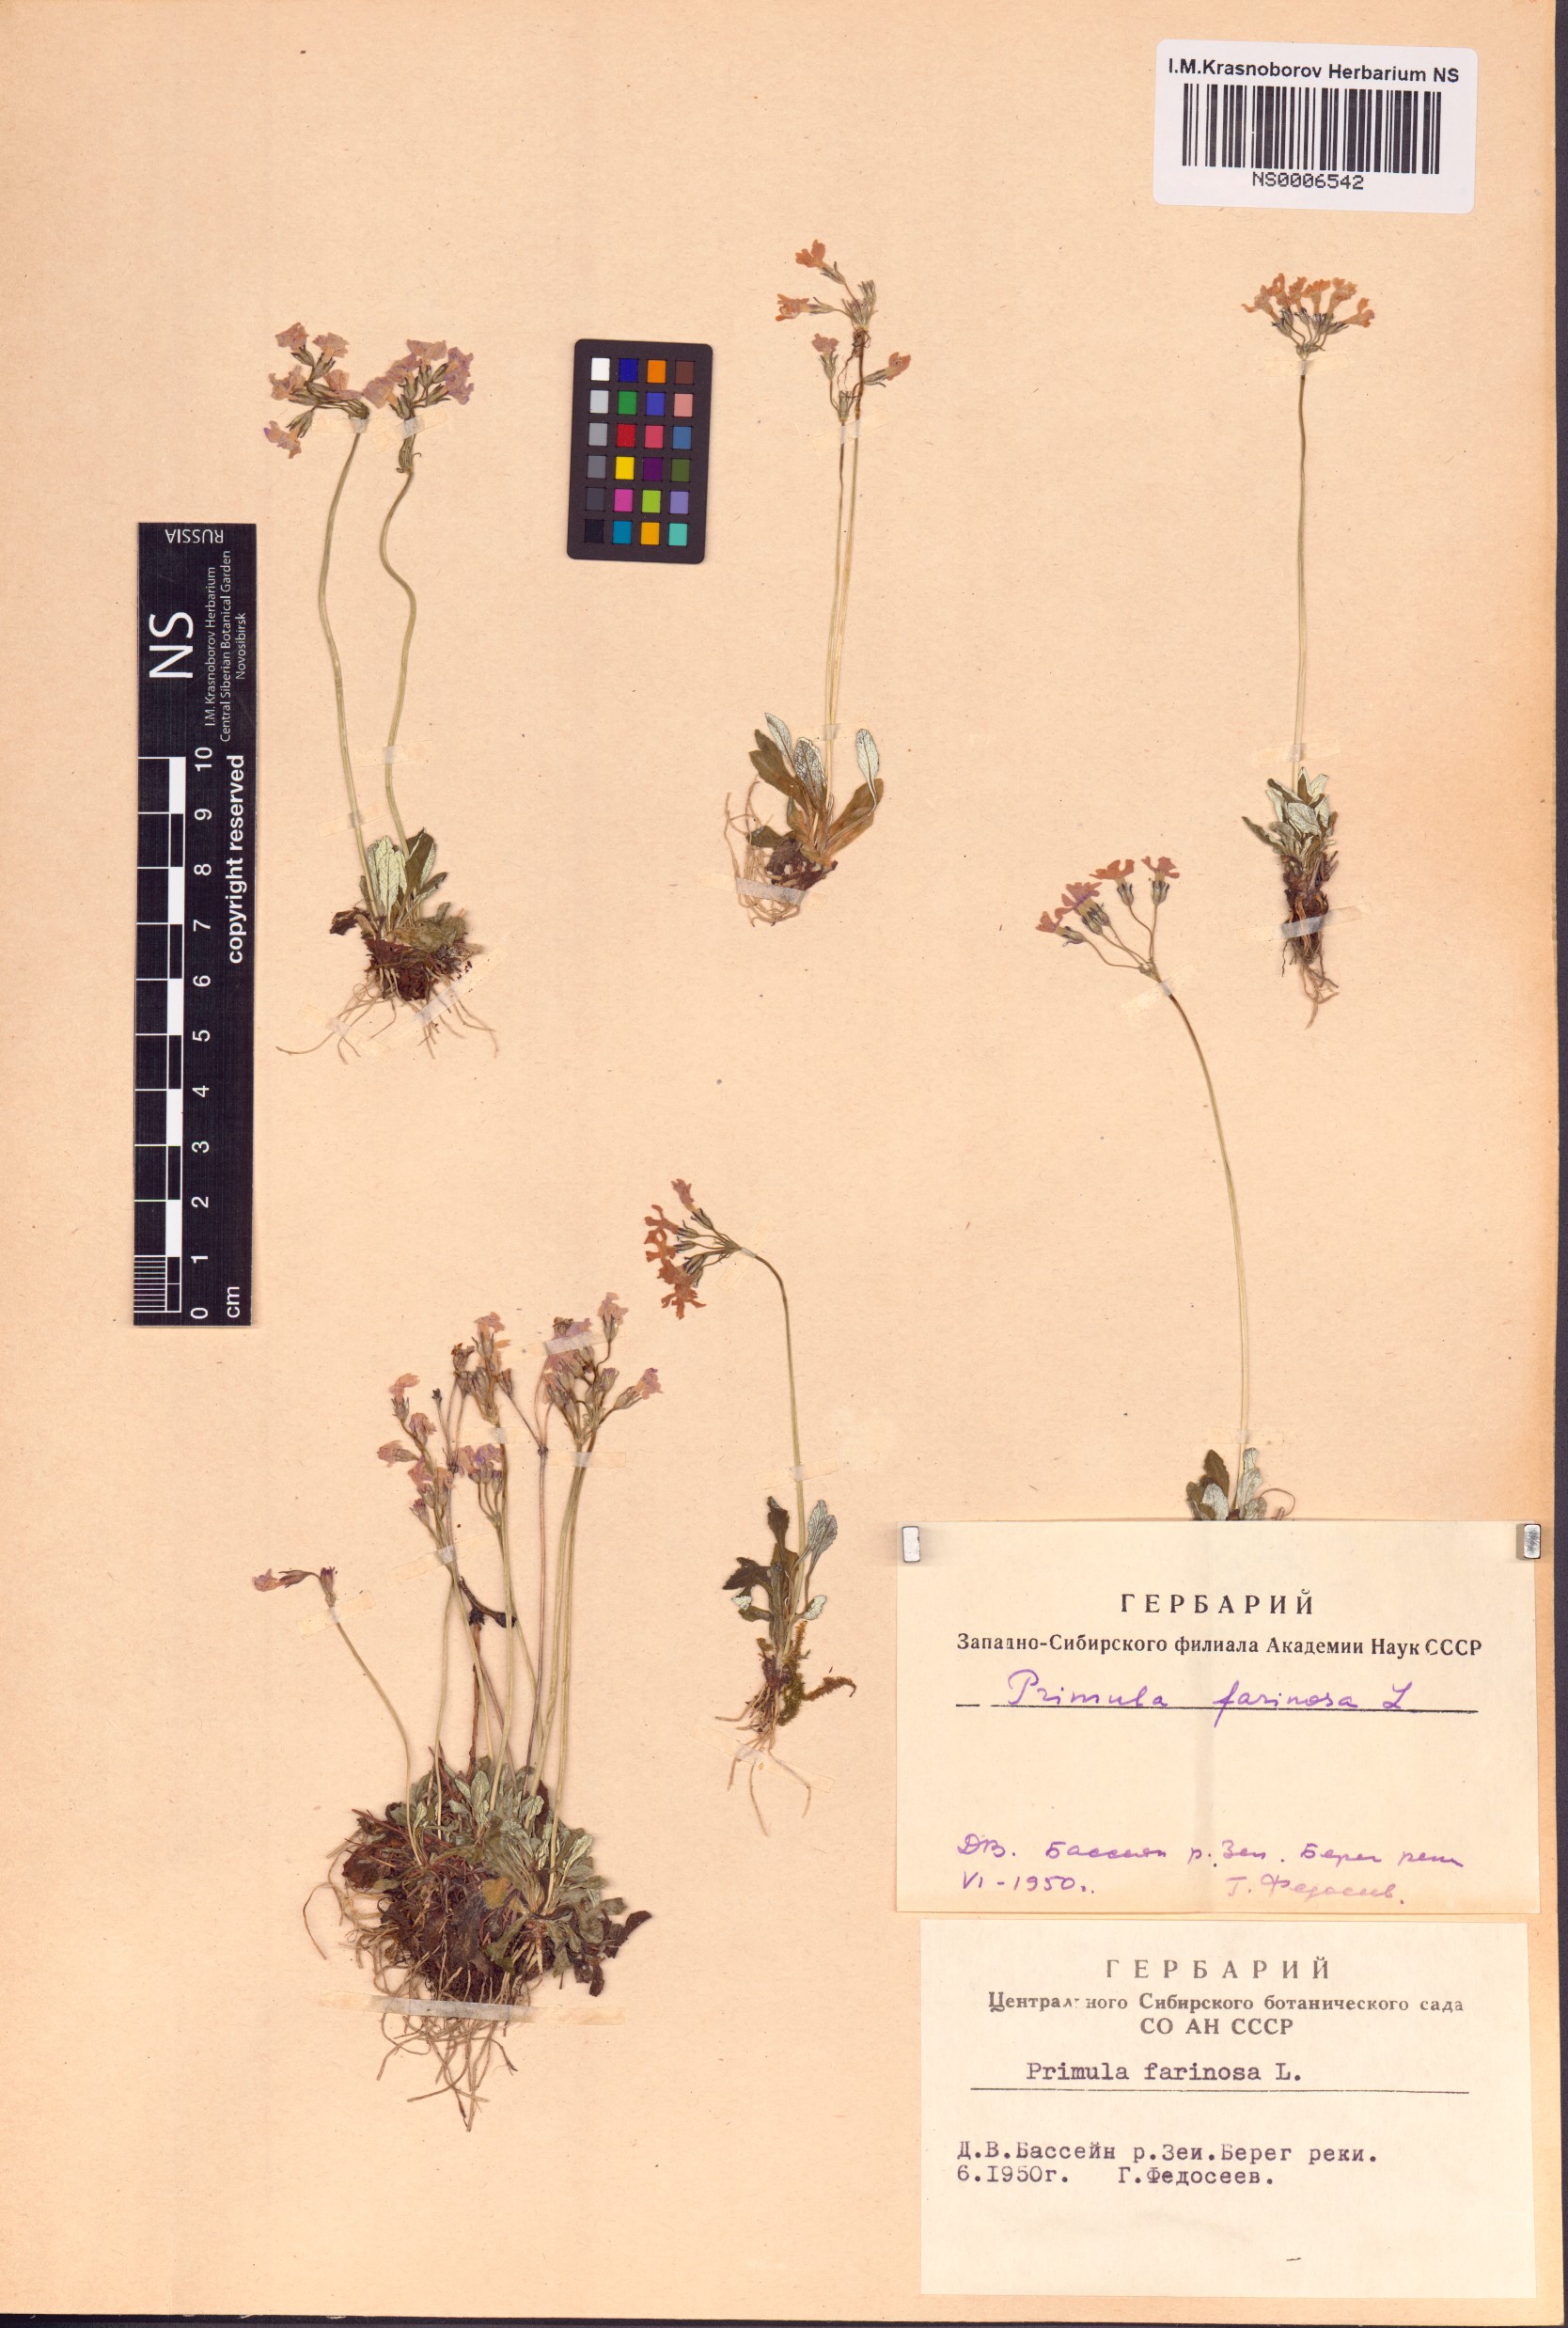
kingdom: Plantae
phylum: Tracheophyta
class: Magnoliopsida
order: Ericales
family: Primulaceae
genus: Primula
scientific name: Primula farinosa
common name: Bird's-eye primrose
